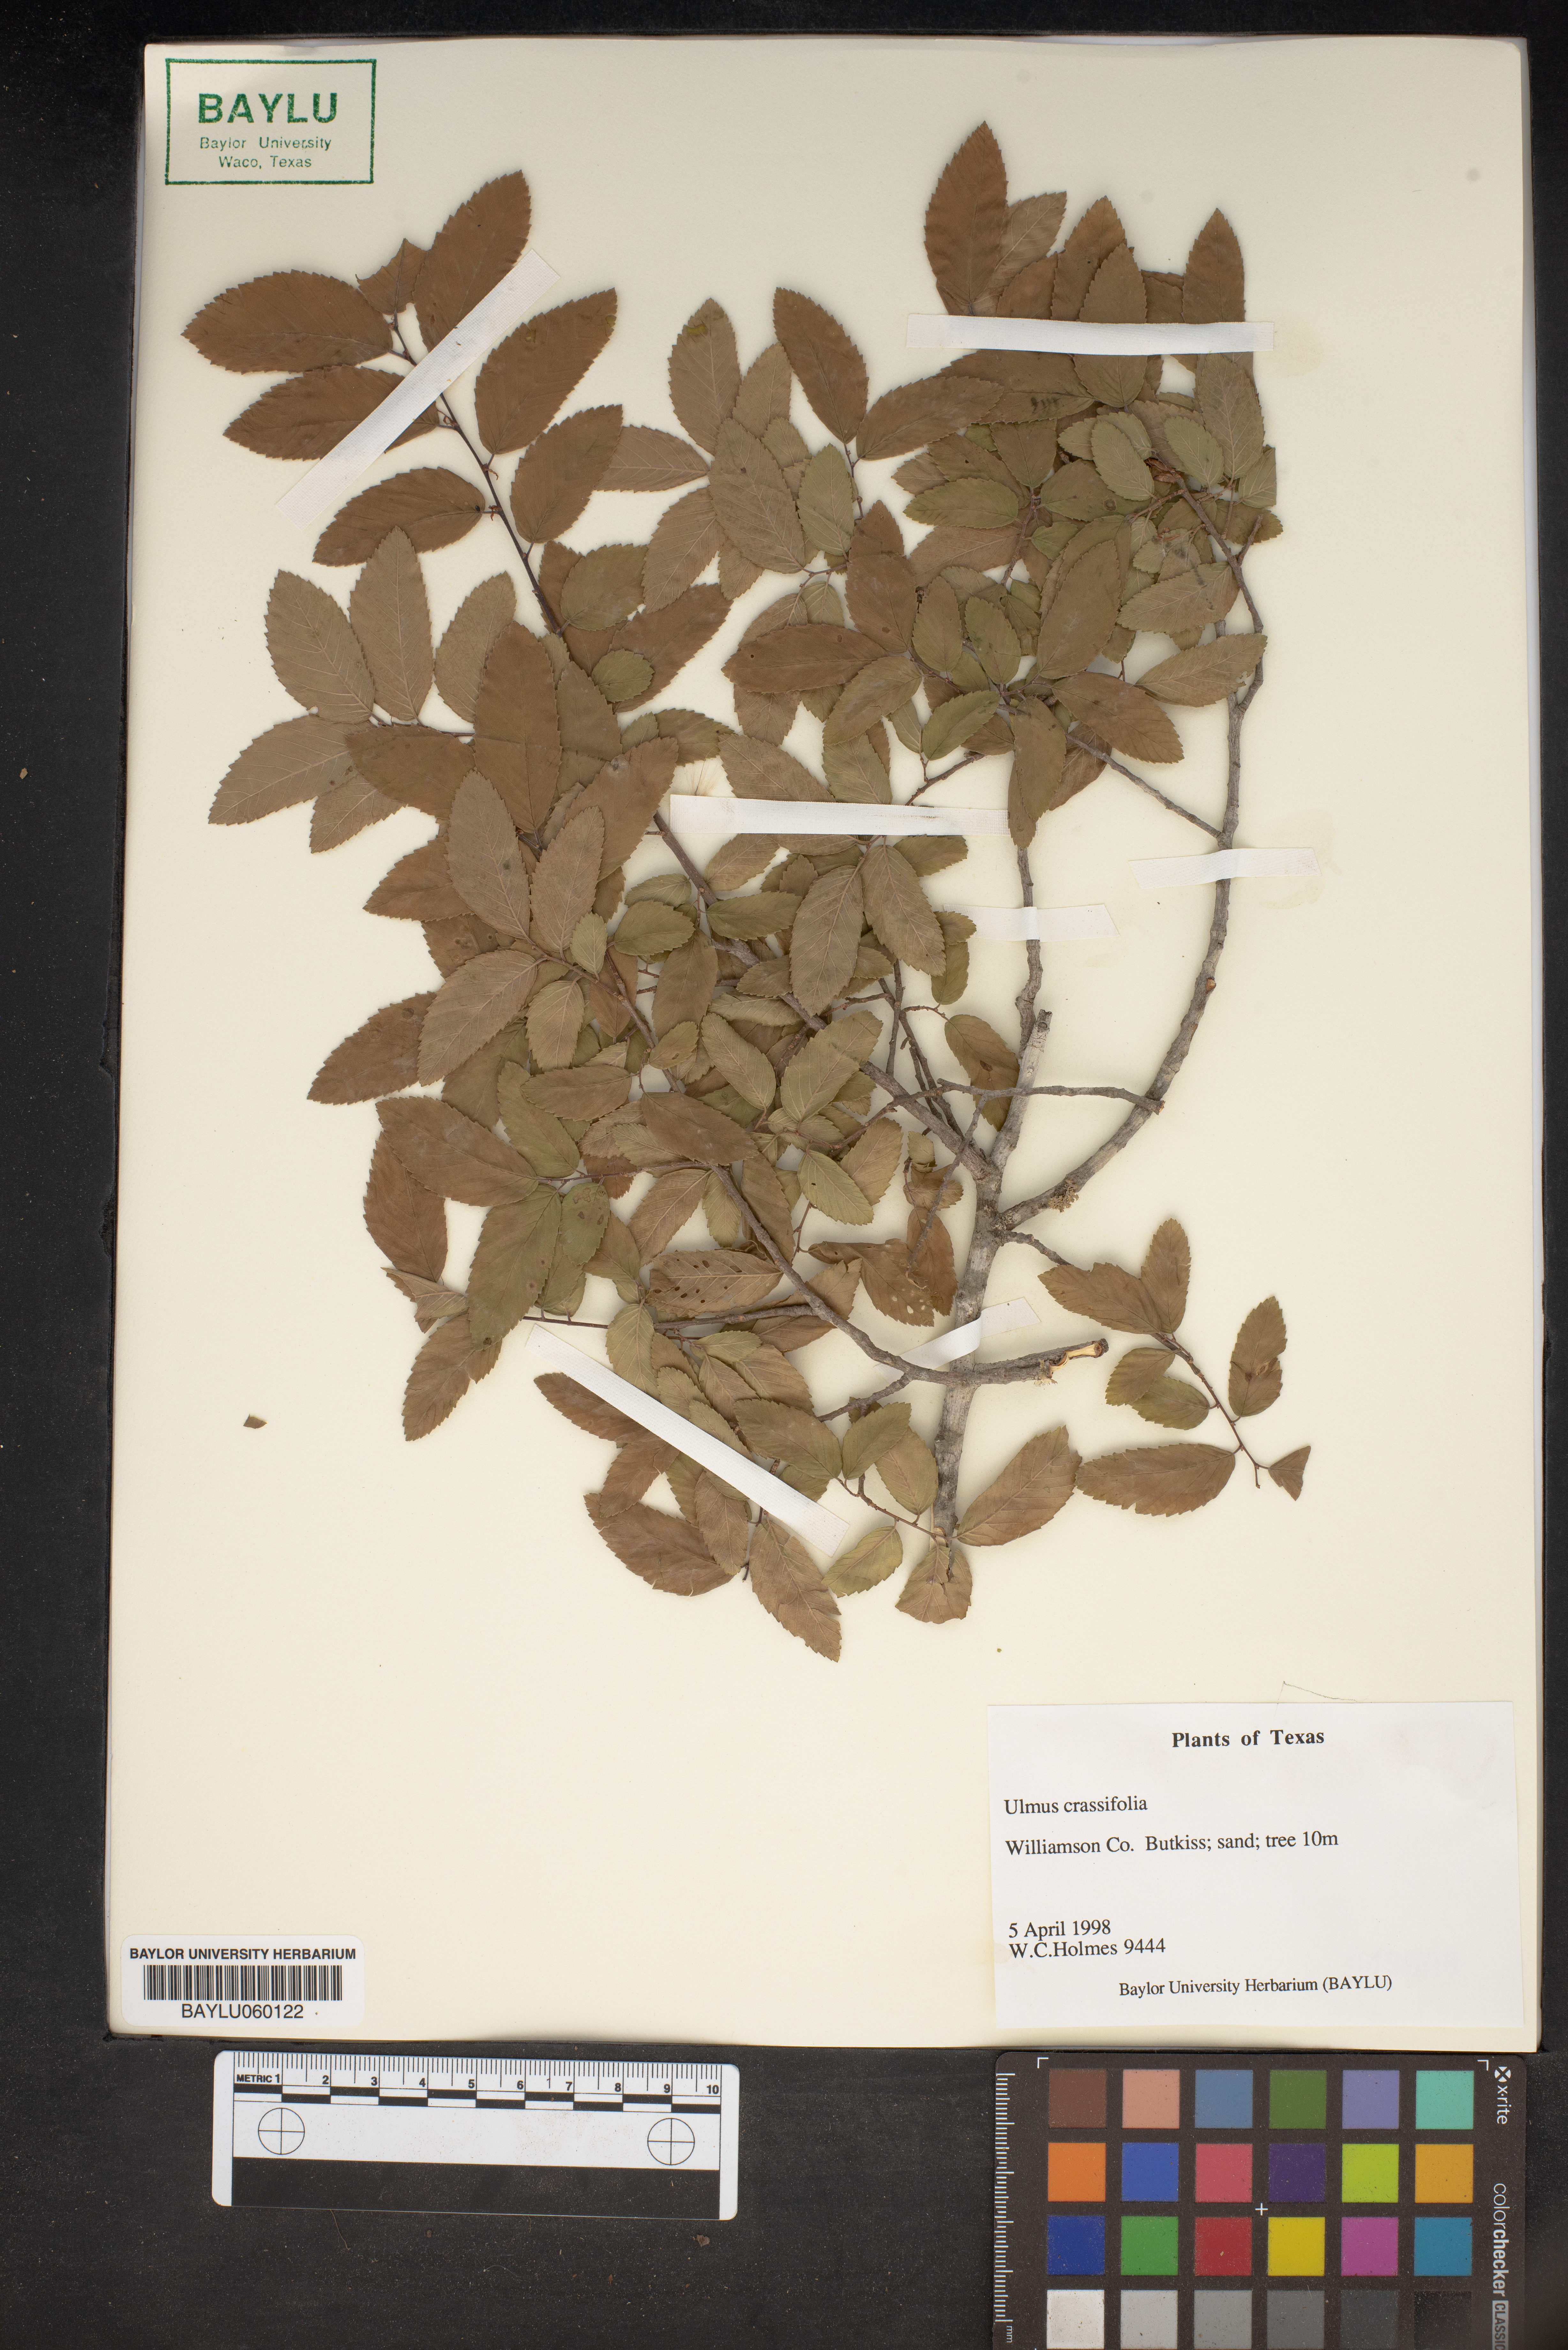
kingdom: Plantae
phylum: Tracheophyta
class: Magnoliopsida
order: Rosales
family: Ulmaceae
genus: Ulmus
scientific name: Ulmus crassifolia
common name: Basket elm
